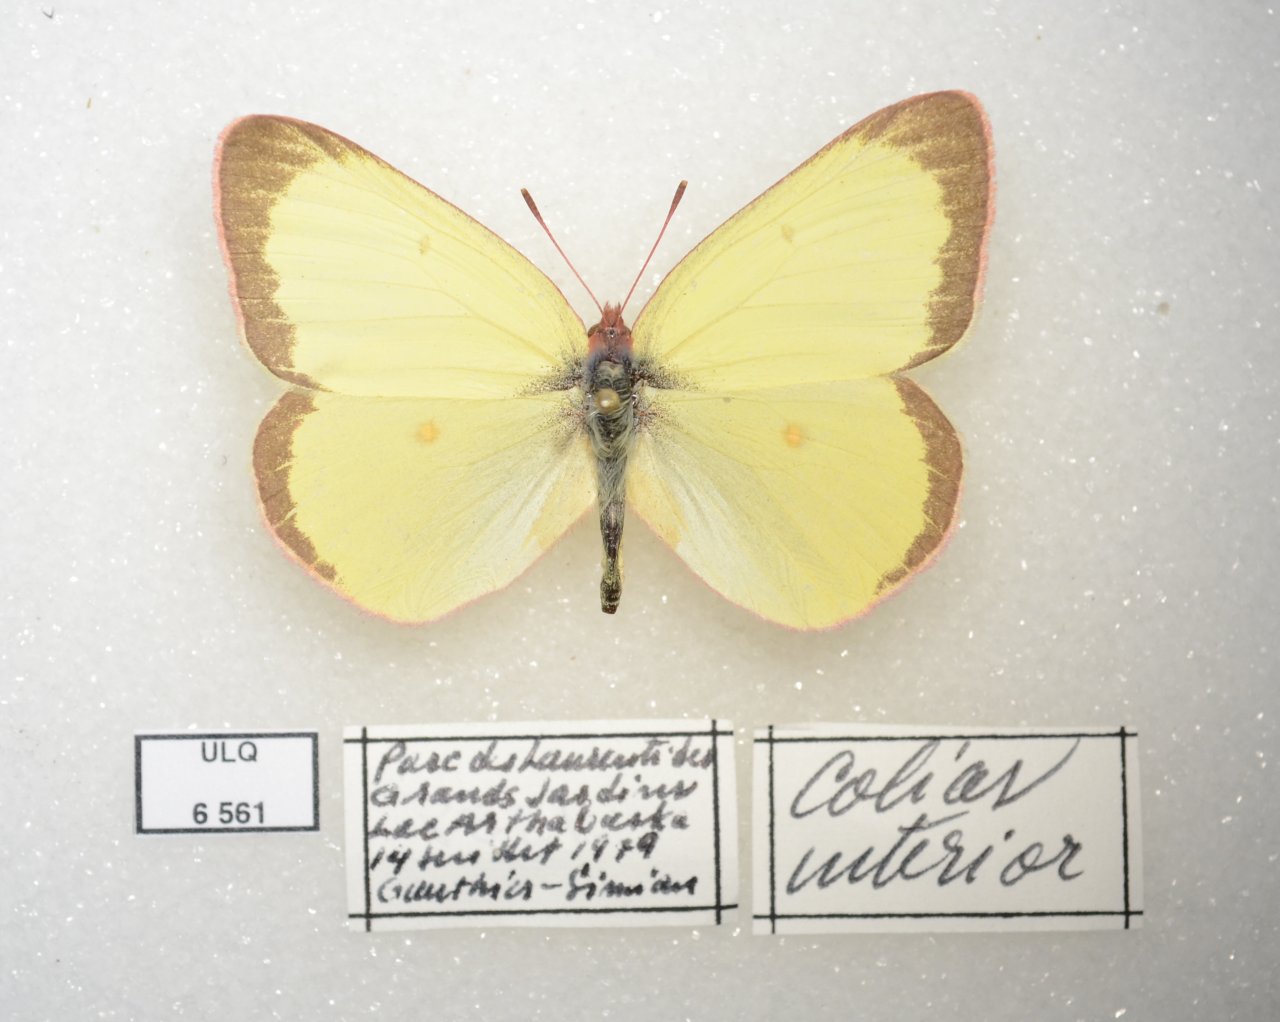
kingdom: Animalia
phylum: Arthropoda
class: Insecta
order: Lepidoptera
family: Pieridae
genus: Colias
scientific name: Colias interior
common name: Pink-edged Sulphur
